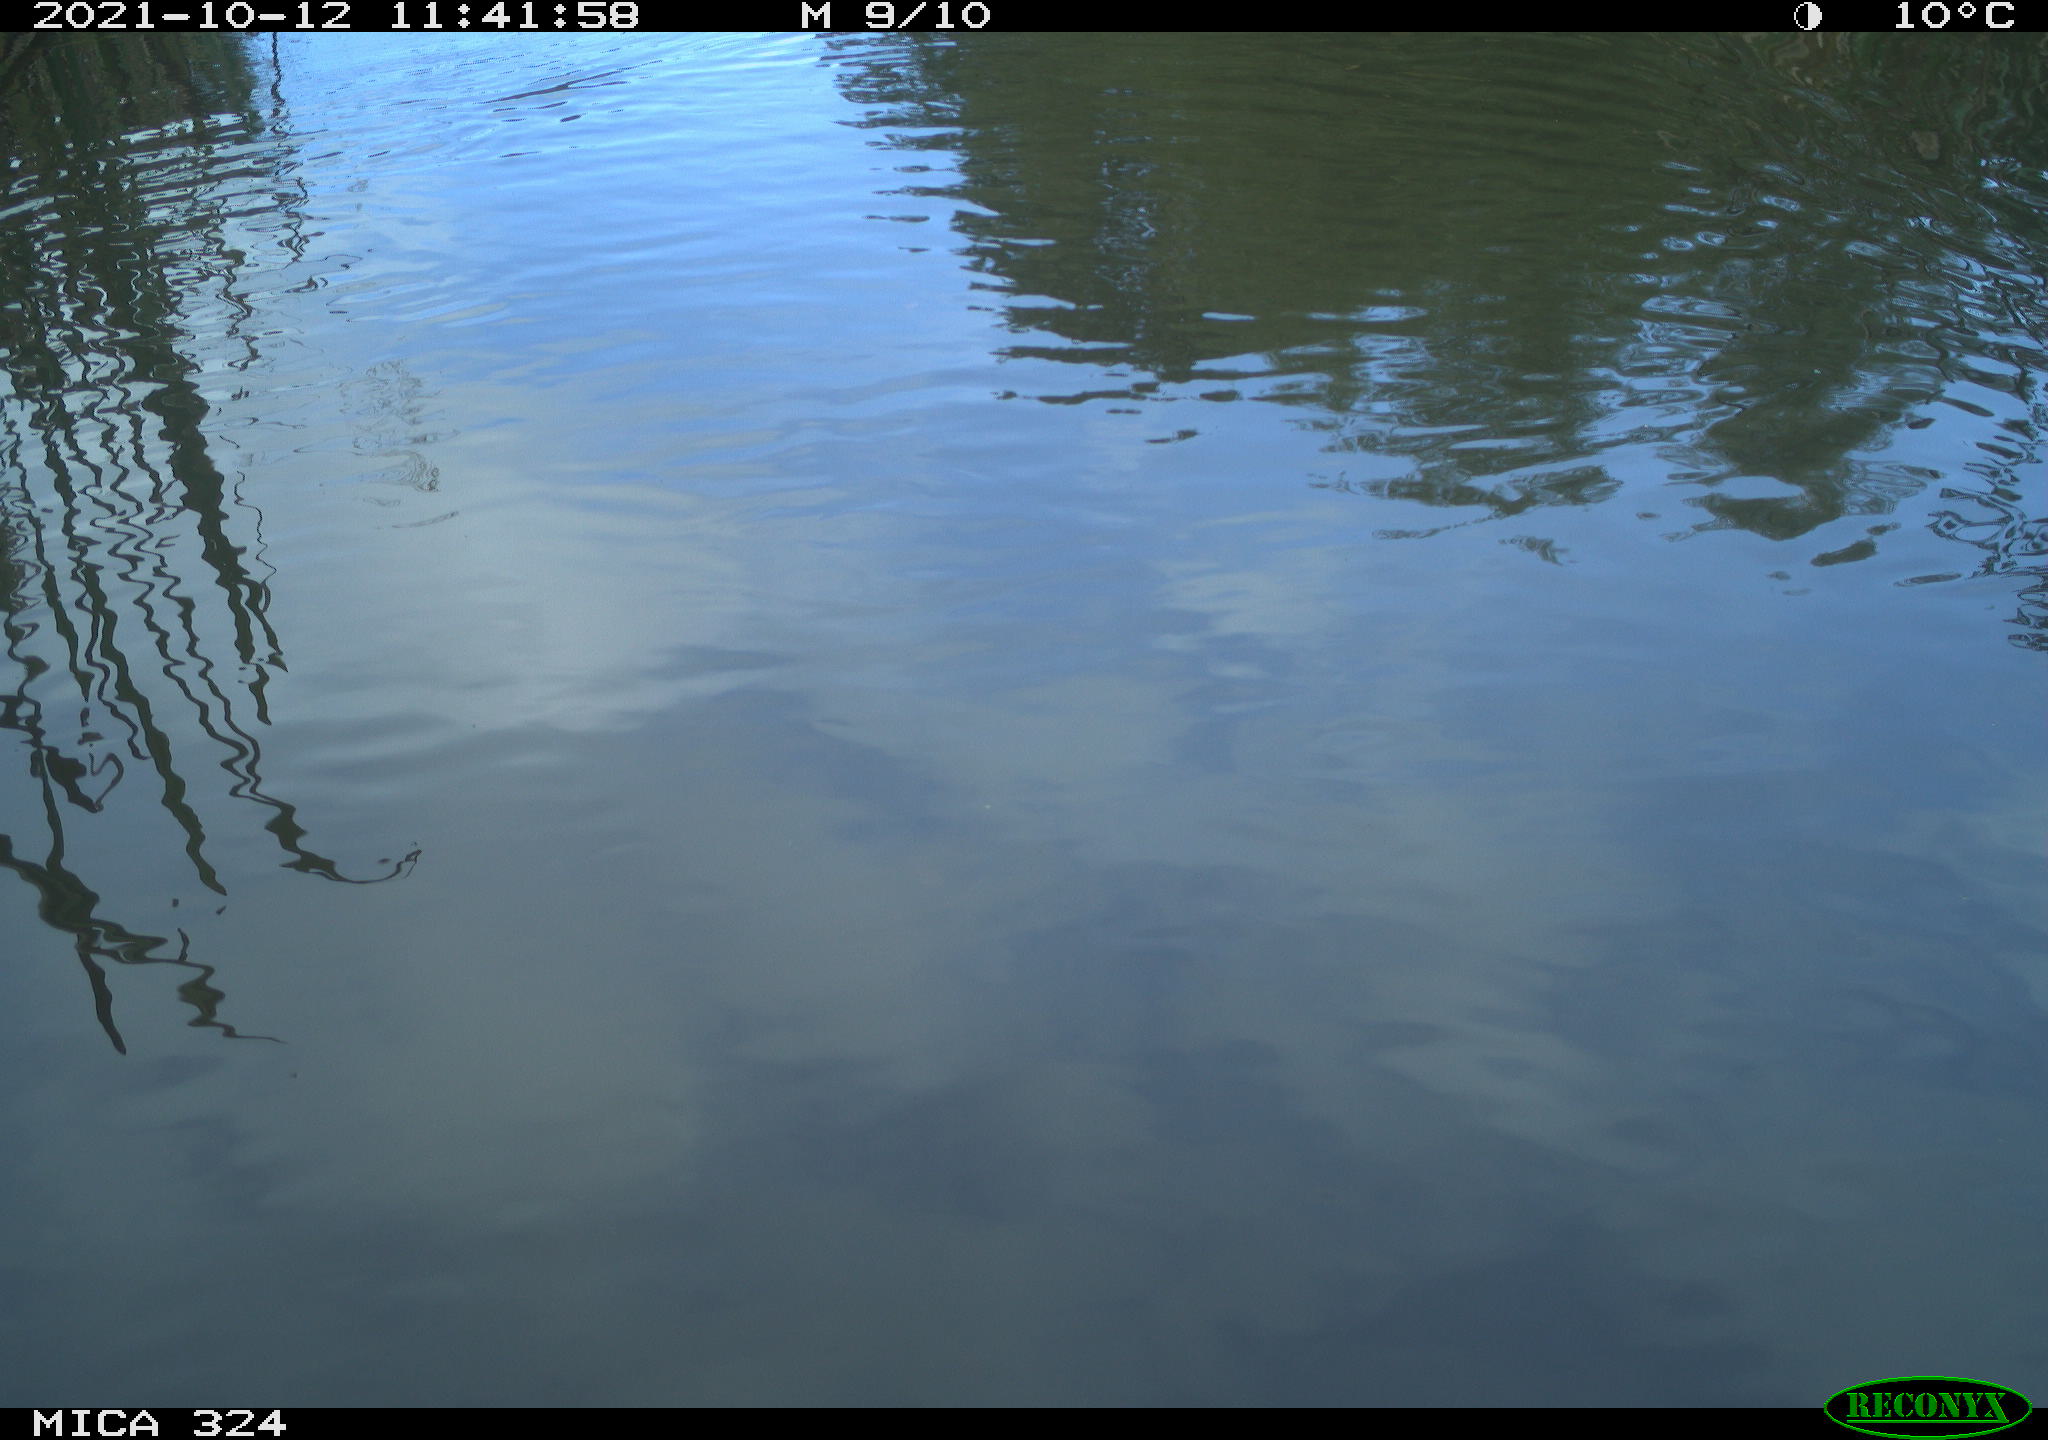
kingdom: Animalia
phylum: Chordata
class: Aves
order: Gruiformes
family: Rallidae
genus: Gallinula
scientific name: Gallinula chloropus
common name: Common moorhen
